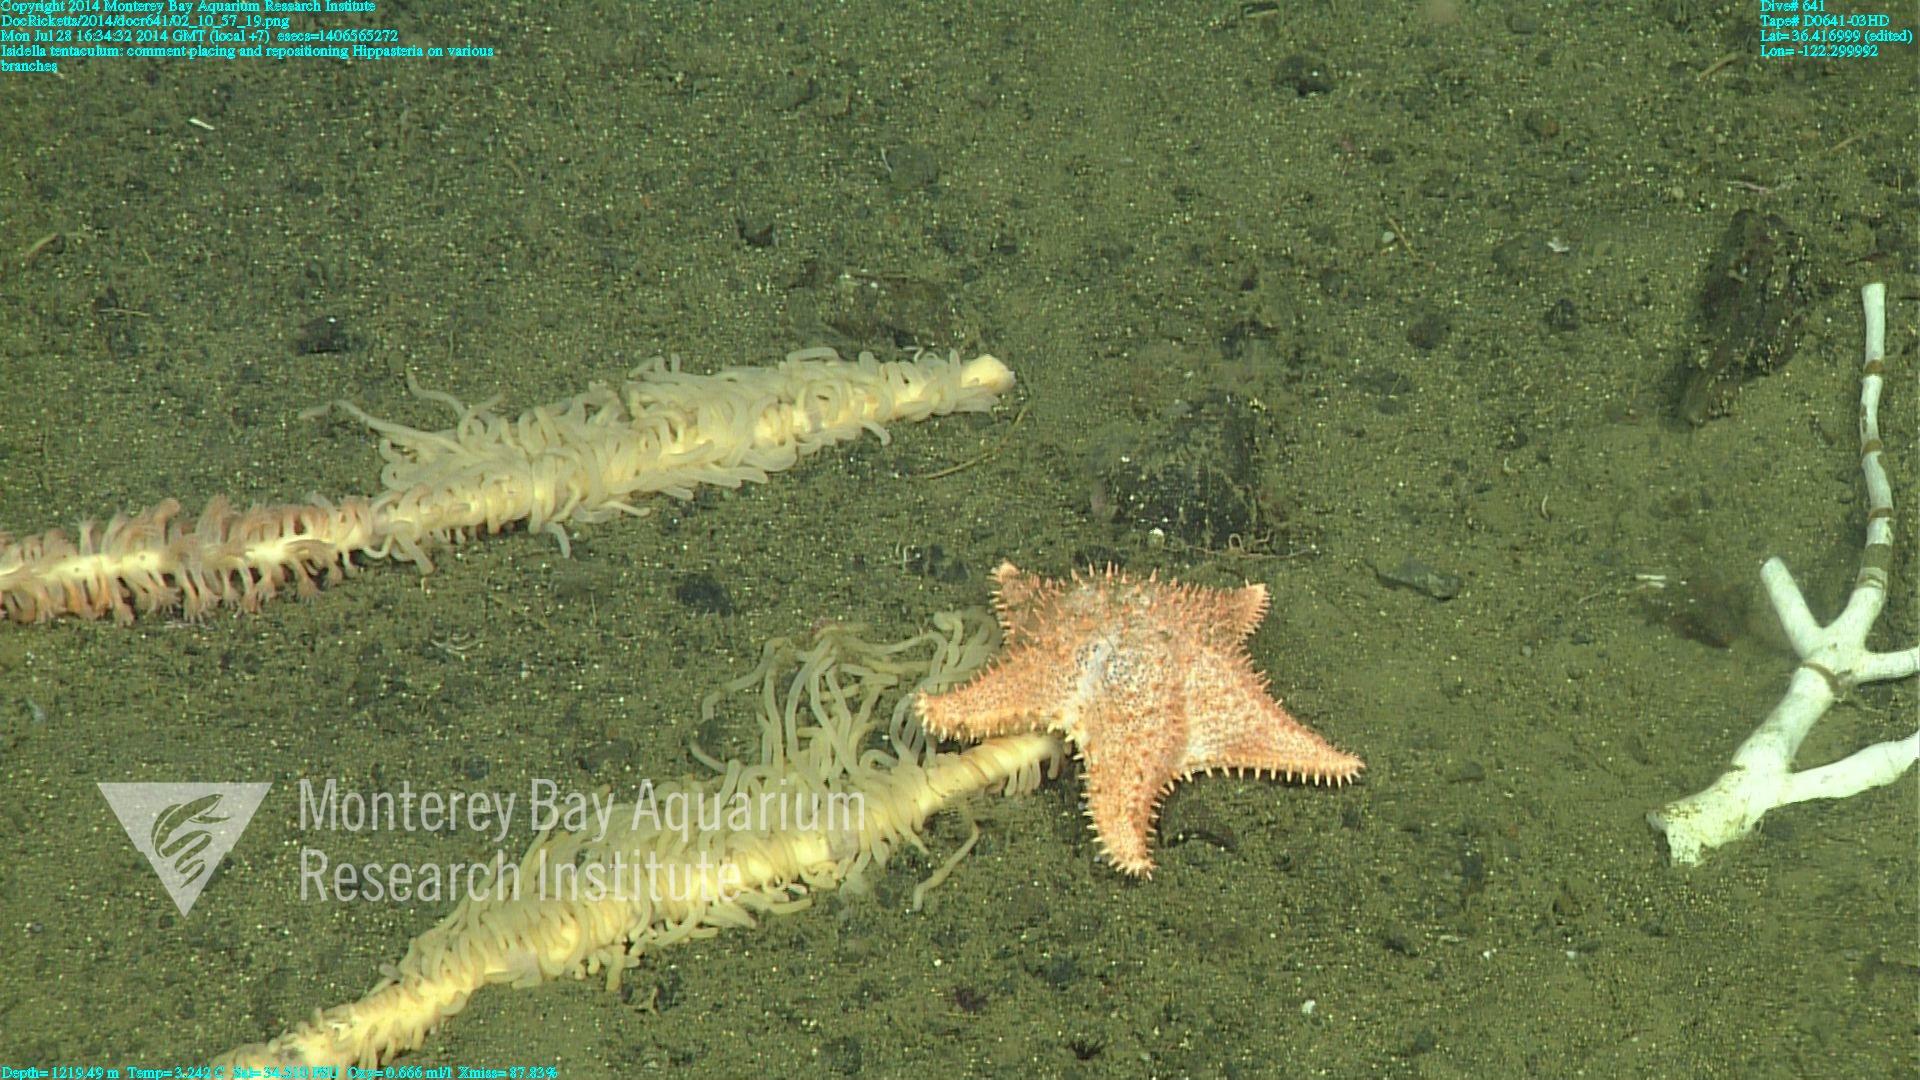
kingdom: Animalia
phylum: Cnidaria
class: Anthozoa
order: Scleralcyonacea
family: Keratoisididae
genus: Isidella
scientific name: Isidella tentaculum
